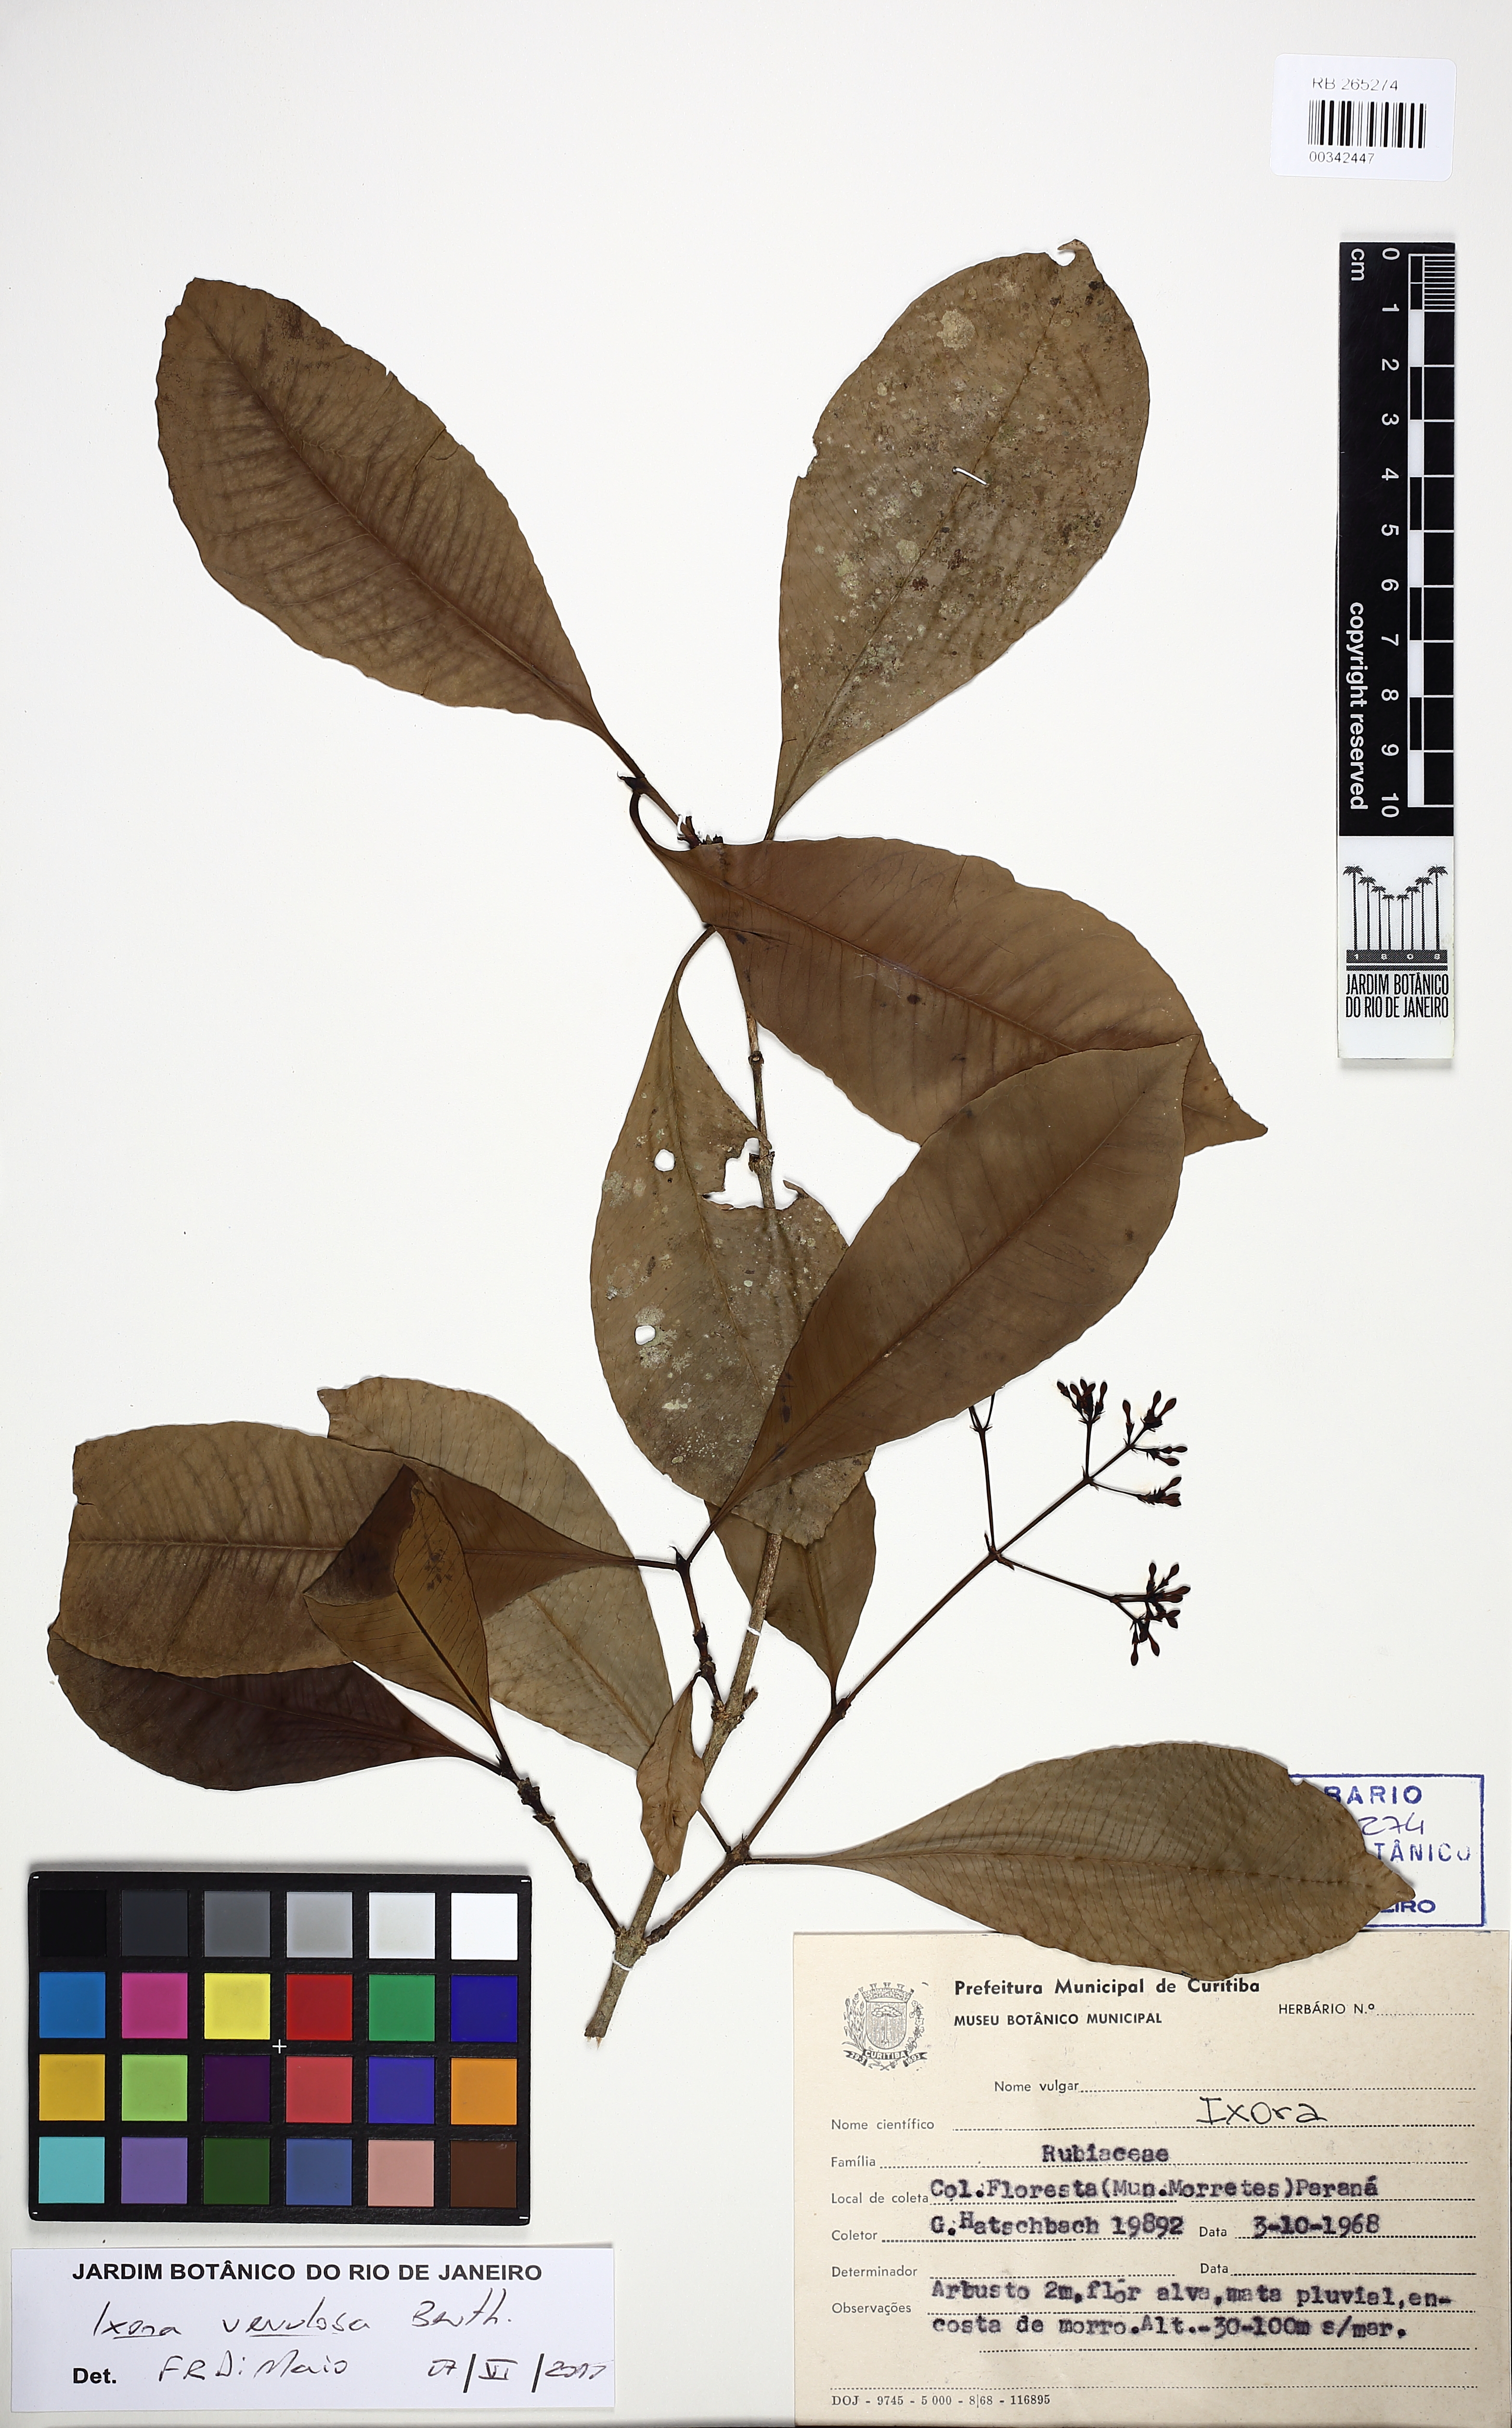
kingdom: Plantae
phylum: Tracheophyta
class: Magnoliopsida
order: Gentianales
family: Rubiaceae
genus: Ixora
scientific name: Ixora venulosa
